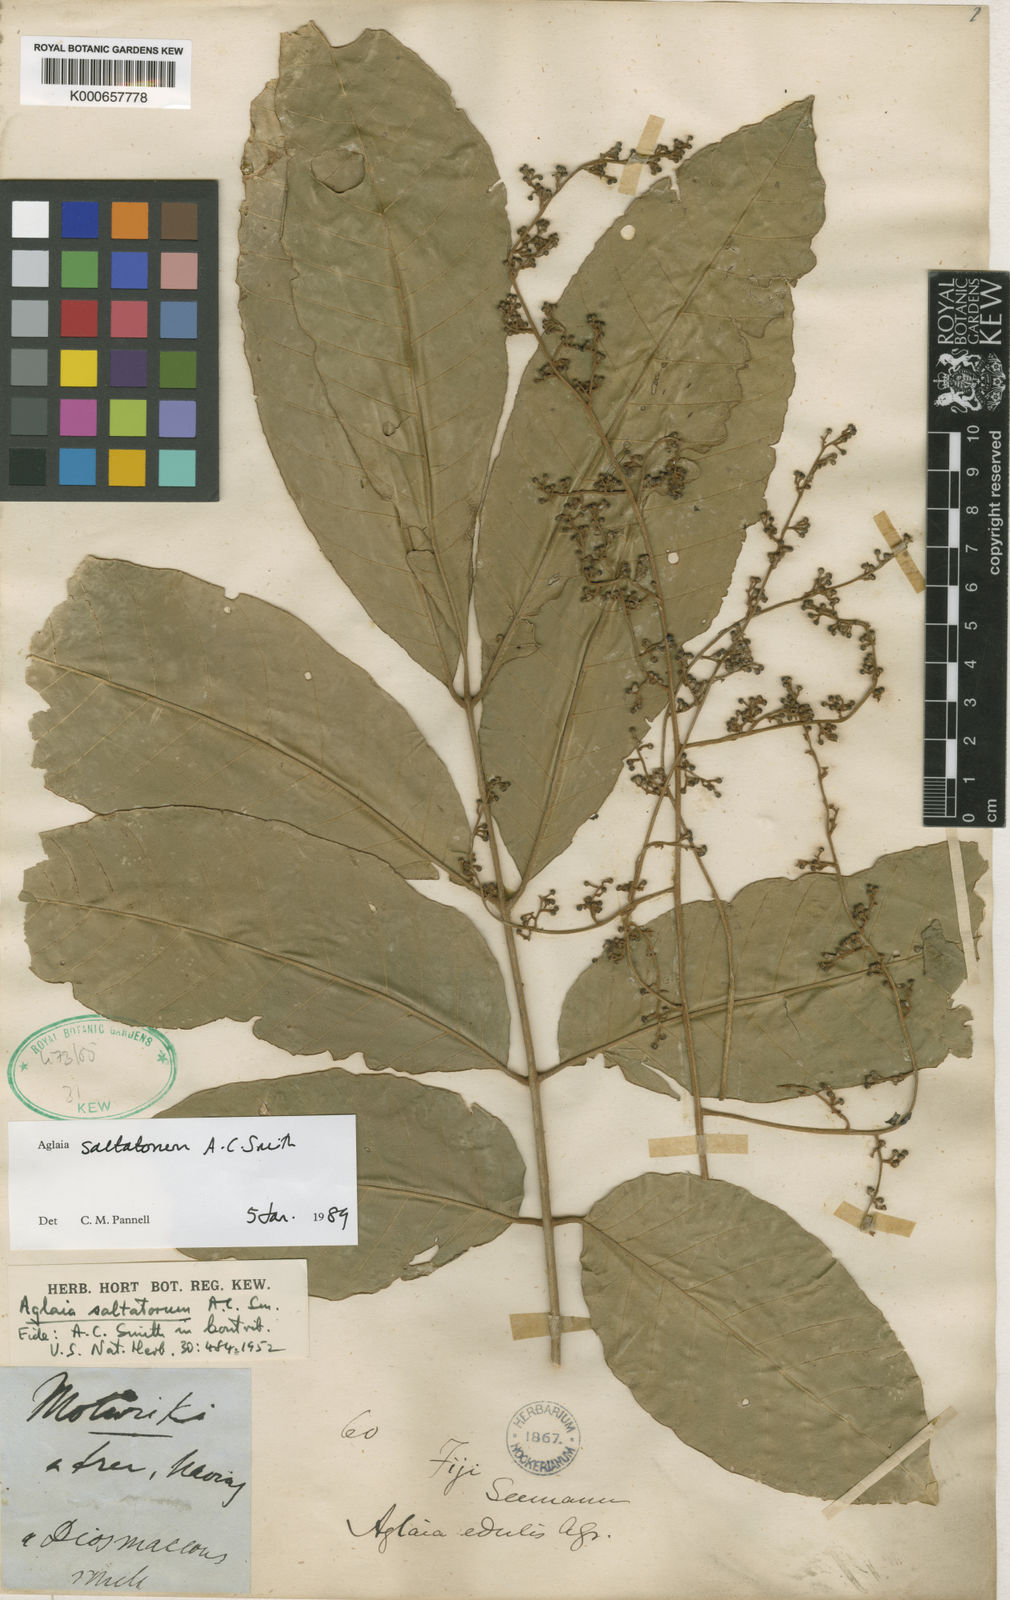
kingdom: Plantae
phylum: Tracheophyta
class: Magnoliopsida
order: Sapindales
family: Meliaceae
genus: Aglaia
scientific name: Aglaia saltatorum
